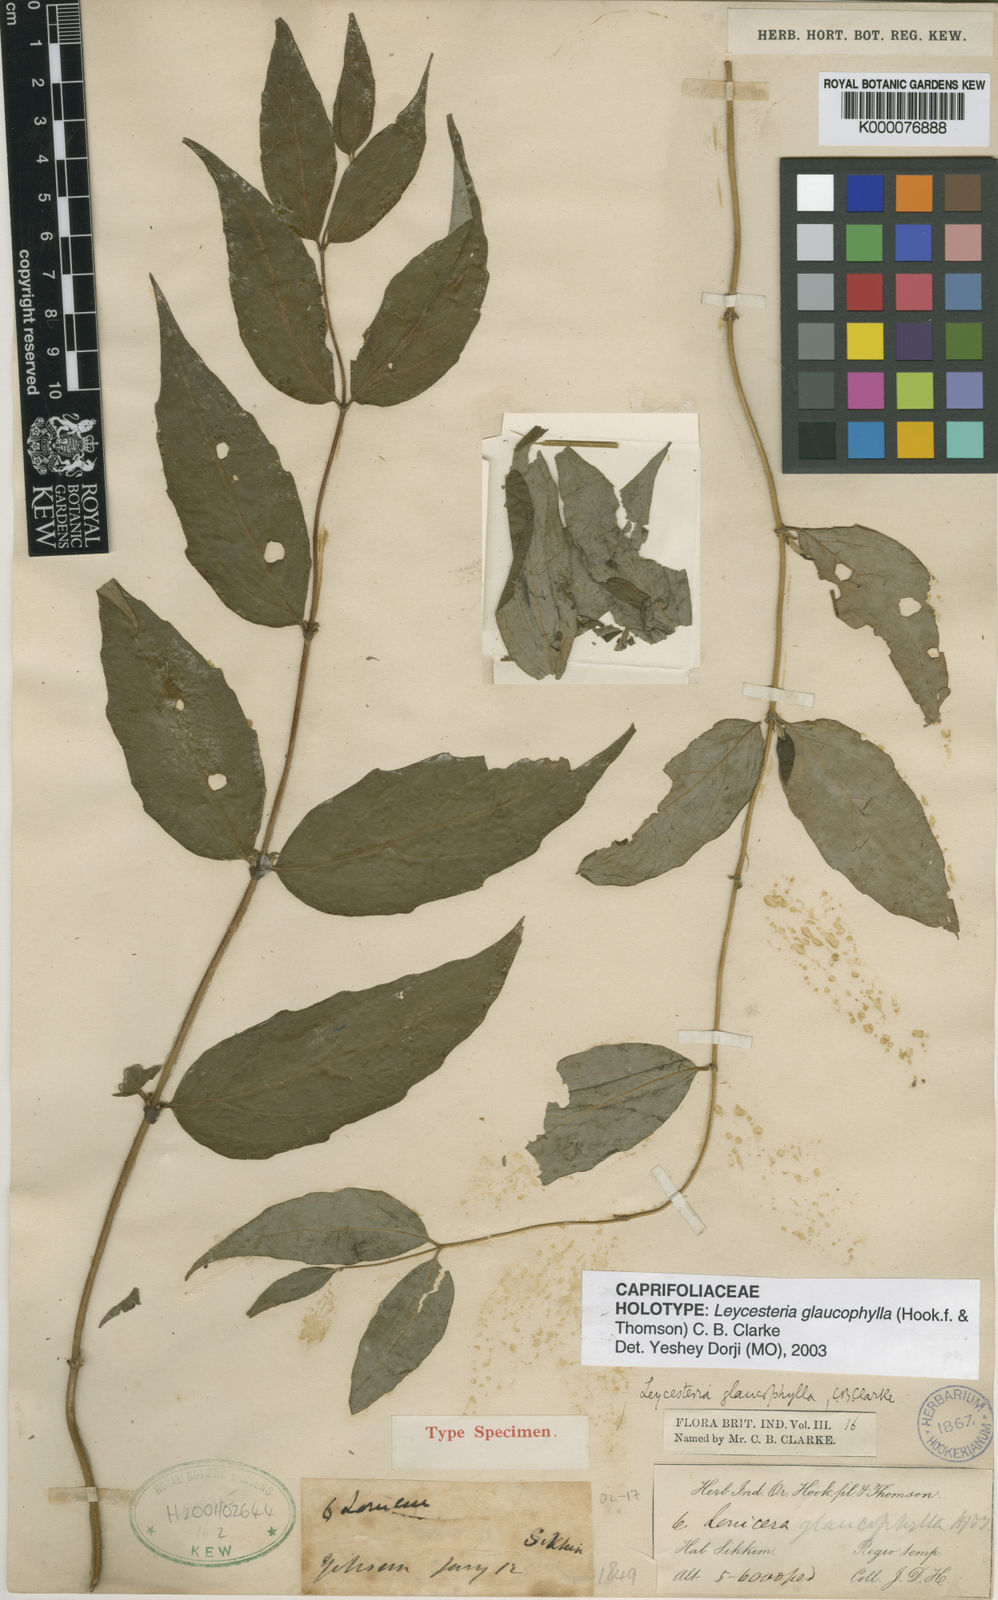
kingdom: Plantae
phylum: Tracheophyta
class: Magnoliopsida
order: Dipsacales
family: Caprifoliaceae
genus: Leycesteria
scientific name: Leycesteria
